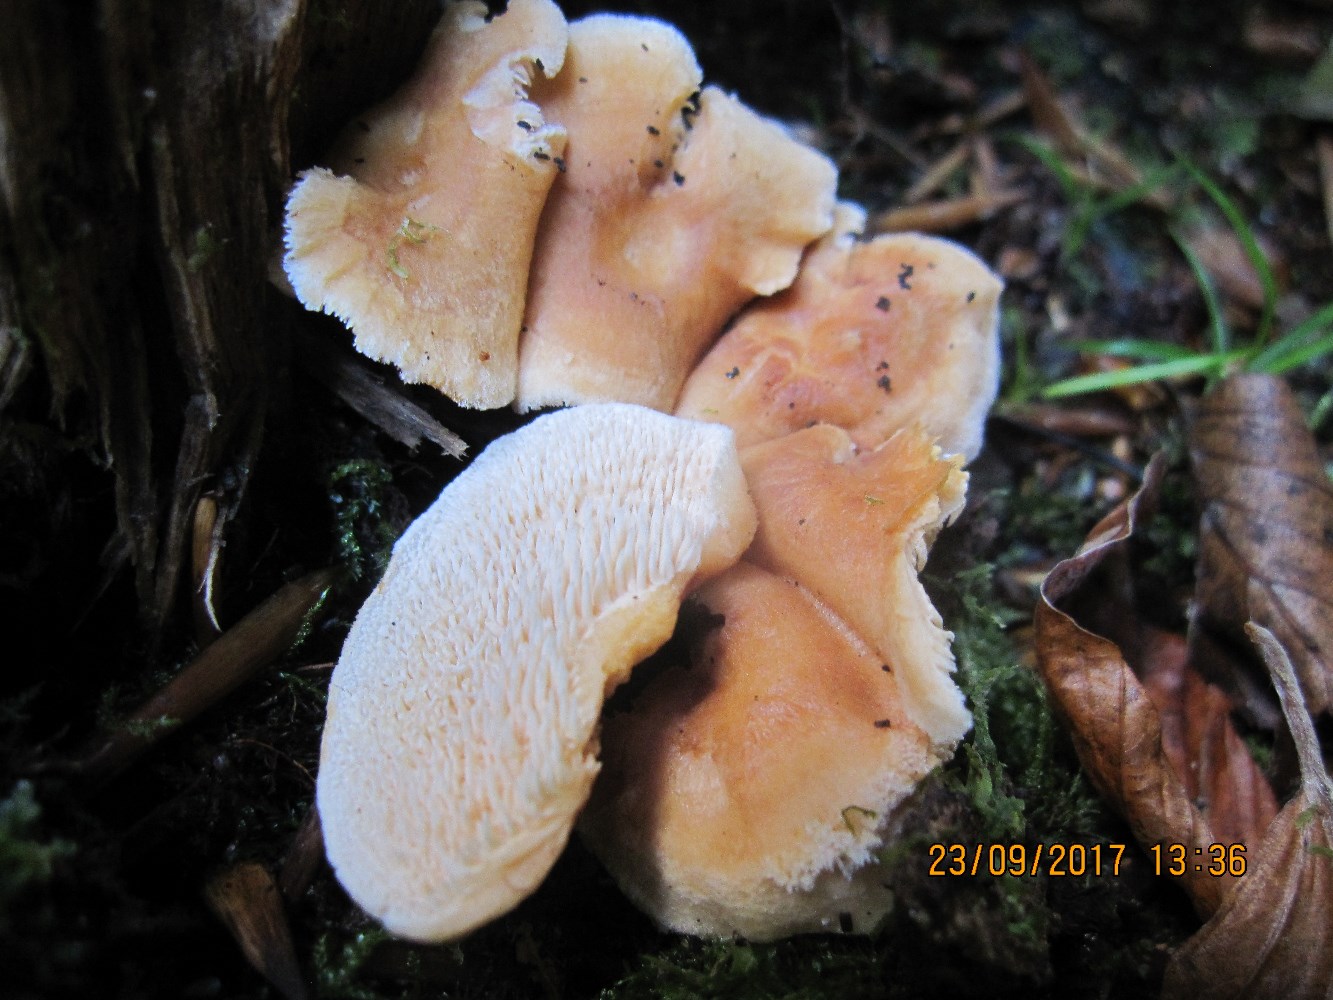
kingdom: Fungi
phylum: Basidiomycota
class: Agaricomycetes
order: Cantharellales
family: Hydnaceae
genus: Hydnum
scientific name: Hydnum umbilicatum
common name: navle-pigsvamp
